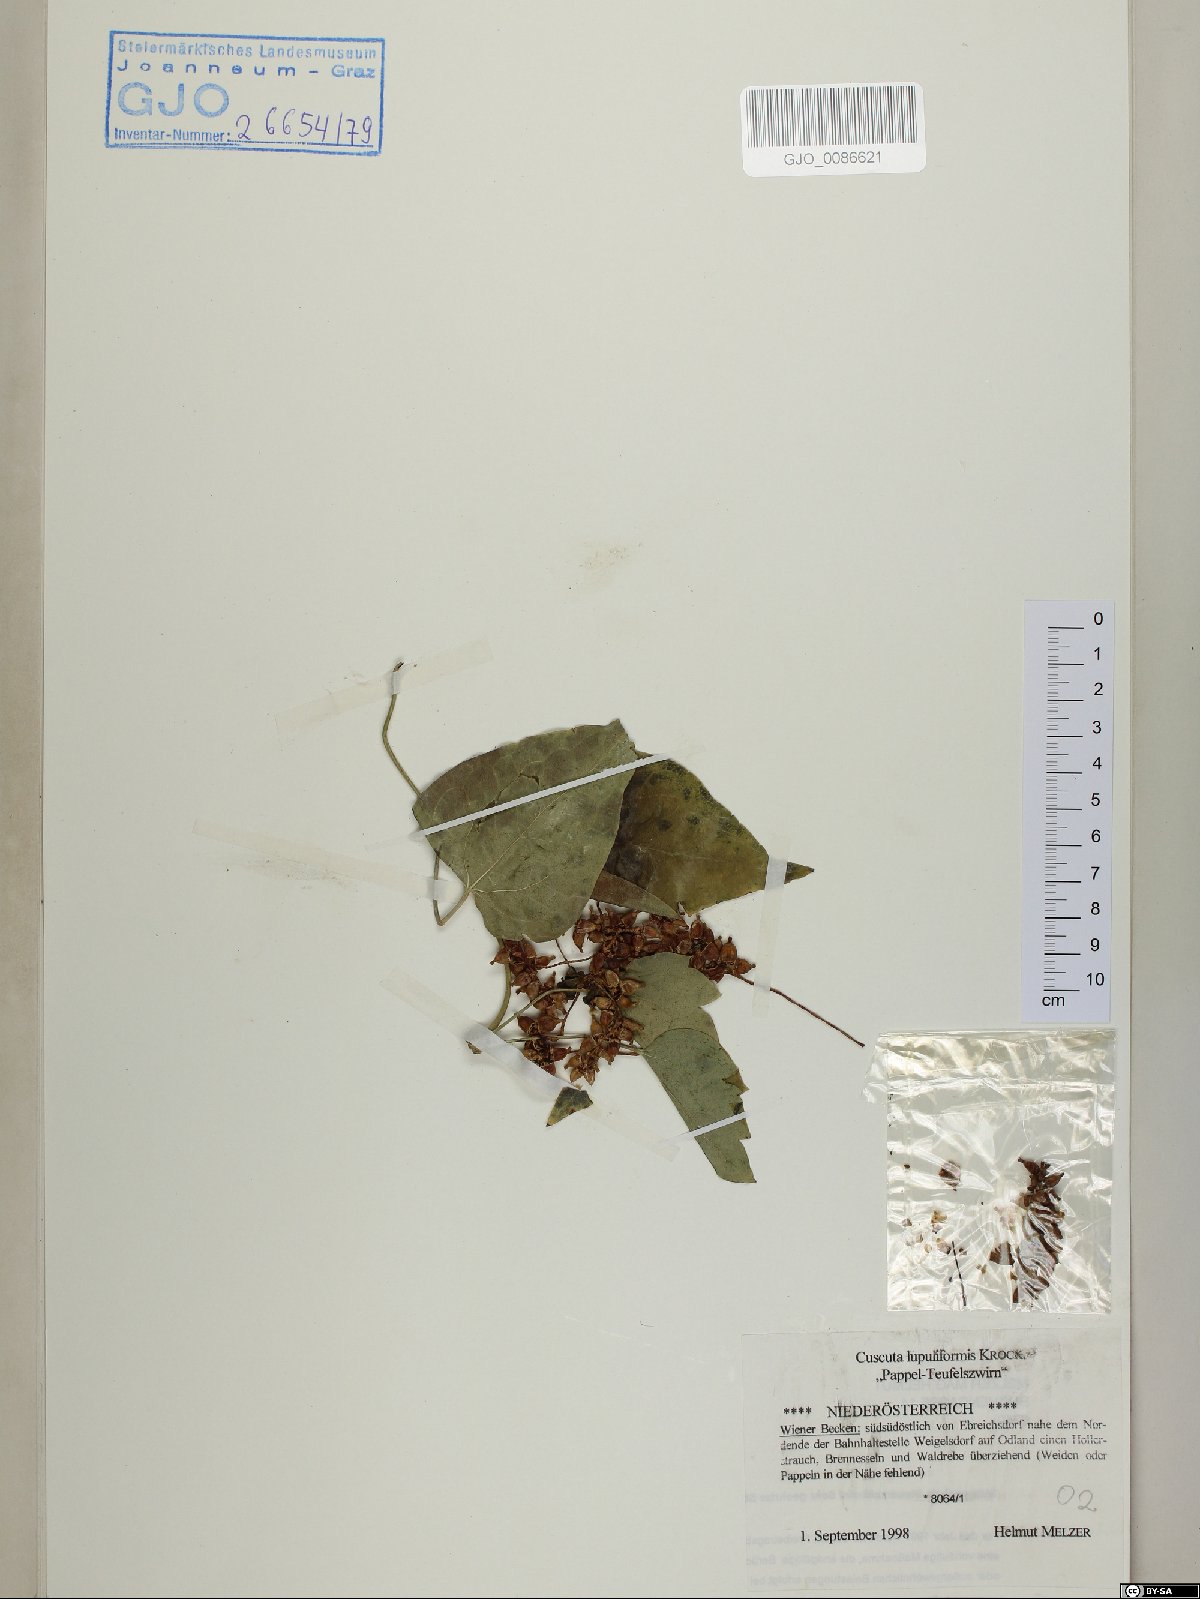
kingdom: Plantae
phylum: Tracheophyta
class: Magnoliopsida
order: Solanales
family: Convolvulaceae
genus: Cuscuta
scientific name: Cuscuta lupuliformis
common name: Hop dodder
